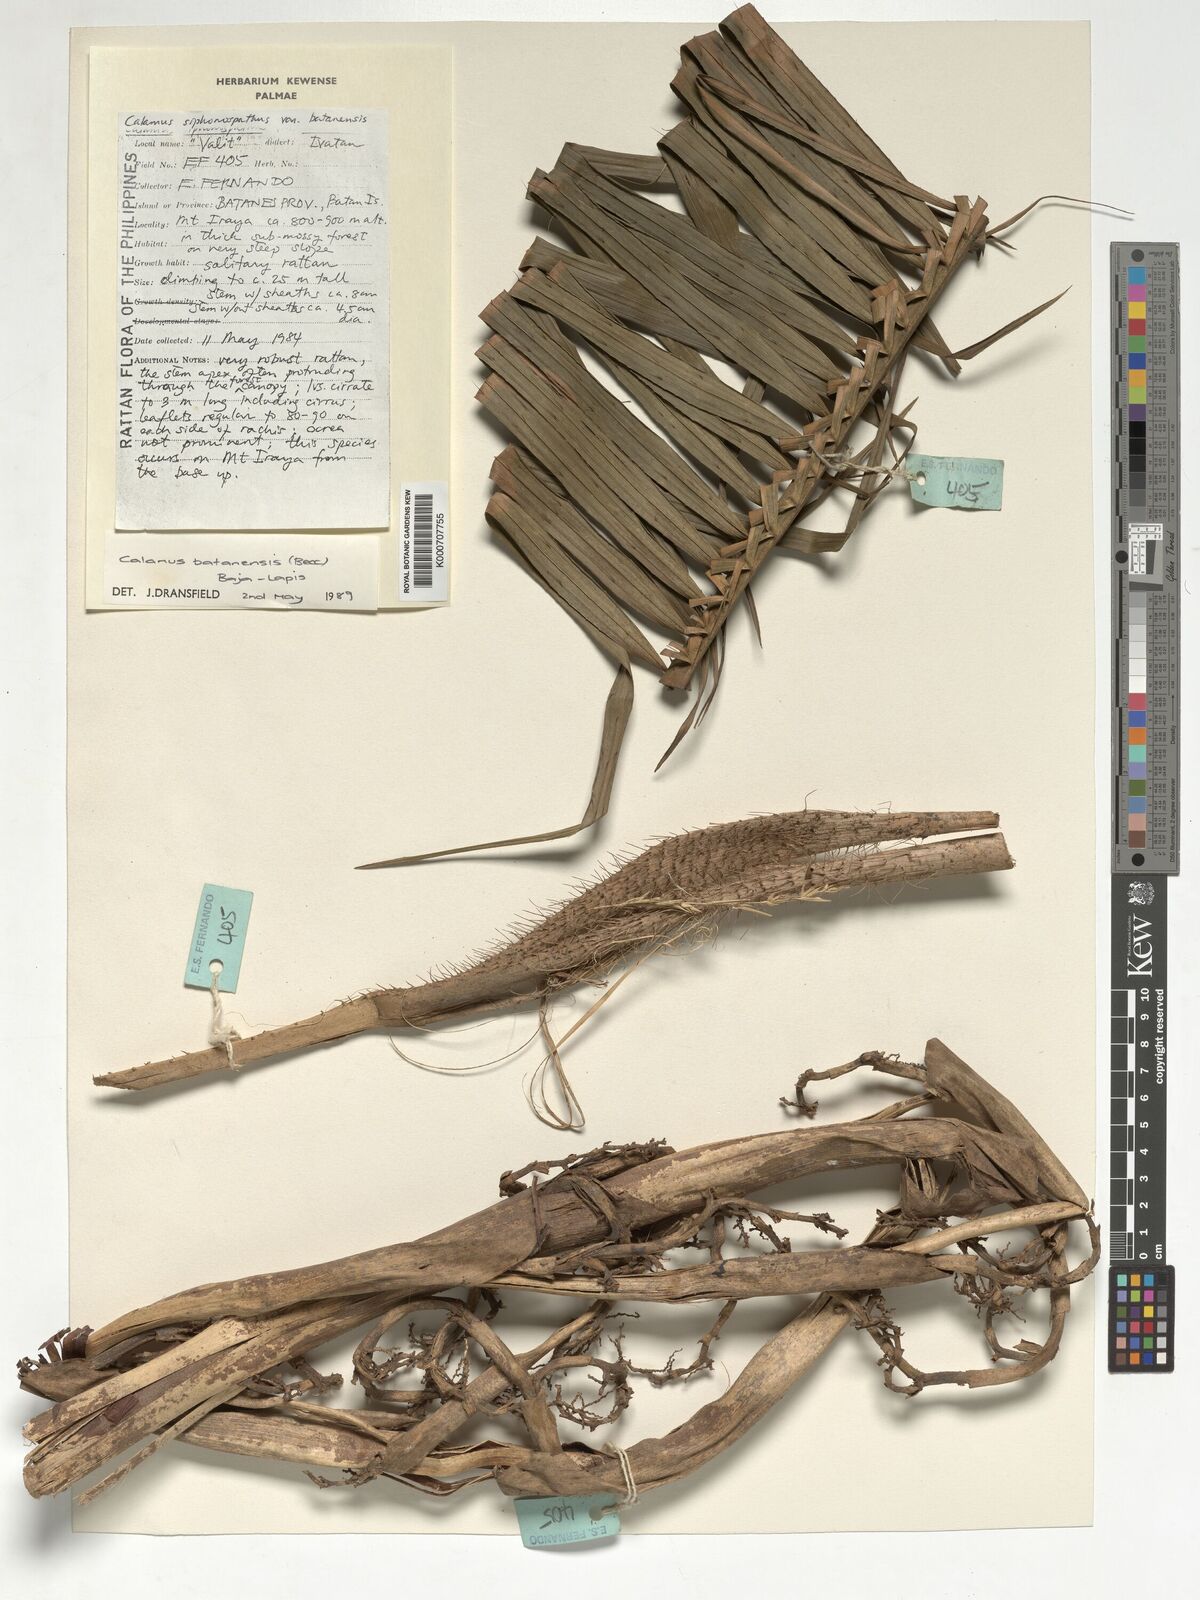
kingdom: Plantae
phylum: Tracheophyta
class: Liliopsida
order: Arecales
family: Arecaceae
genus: Calamus
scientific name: Calamus batanensis
